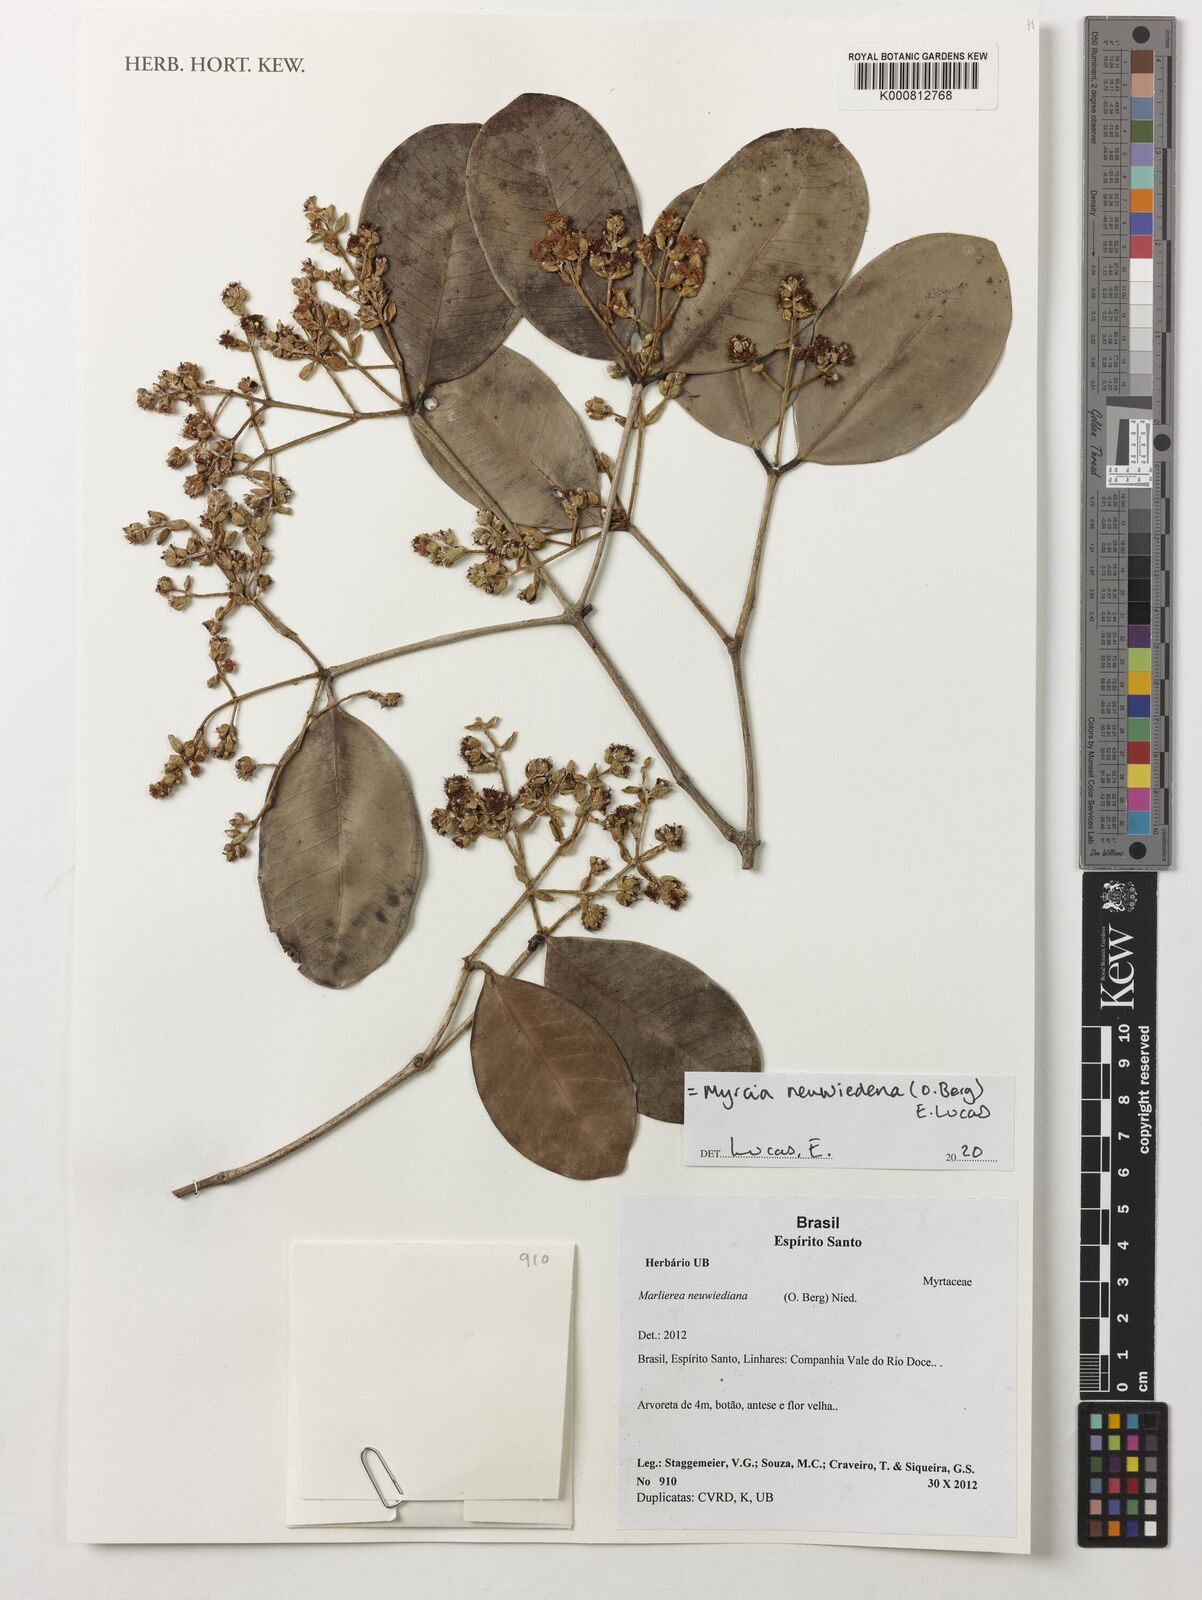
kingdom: Plantae
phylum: Tracheophyta
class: Magnoliopsida
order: Myrtales
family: Myrtaceae
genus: Myrcia
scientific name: Myrcia neuwiedeana
